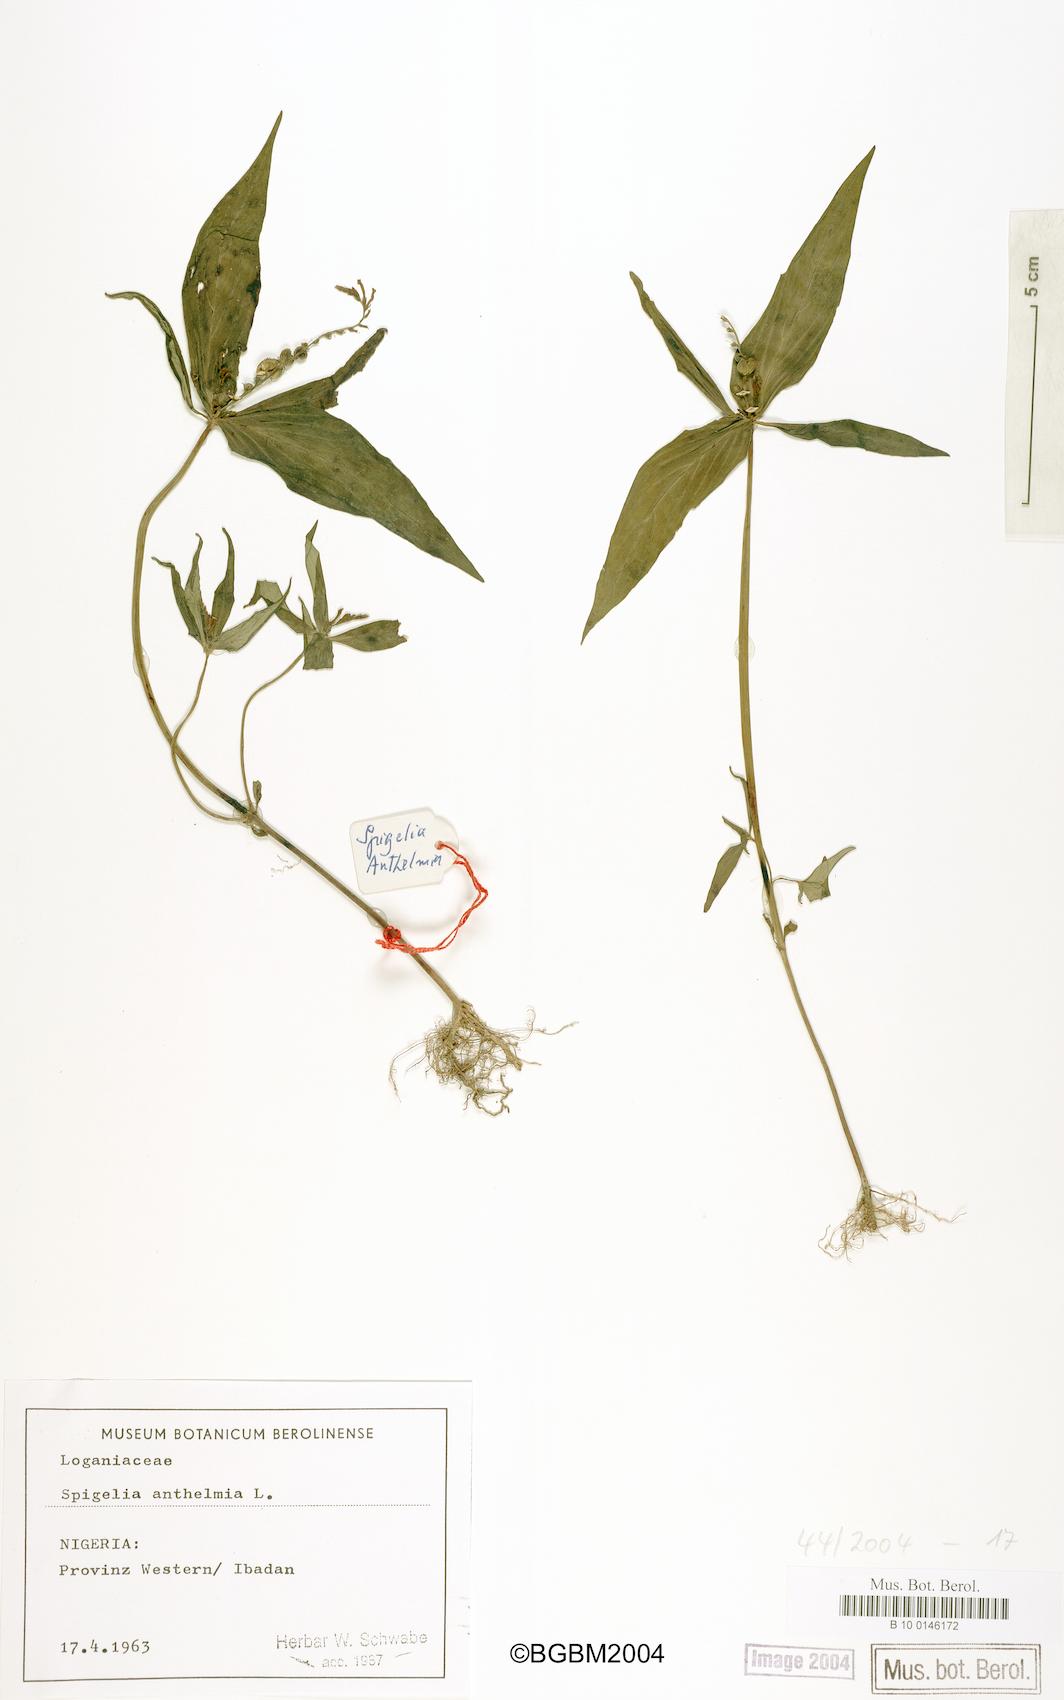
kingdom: Plantae
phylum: Tracheophyta
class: Magnoliopsida
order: Gentianales
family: Loganiaceae
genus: Spigelia
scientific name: Spigelia anthelmia
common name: West indian-pink
